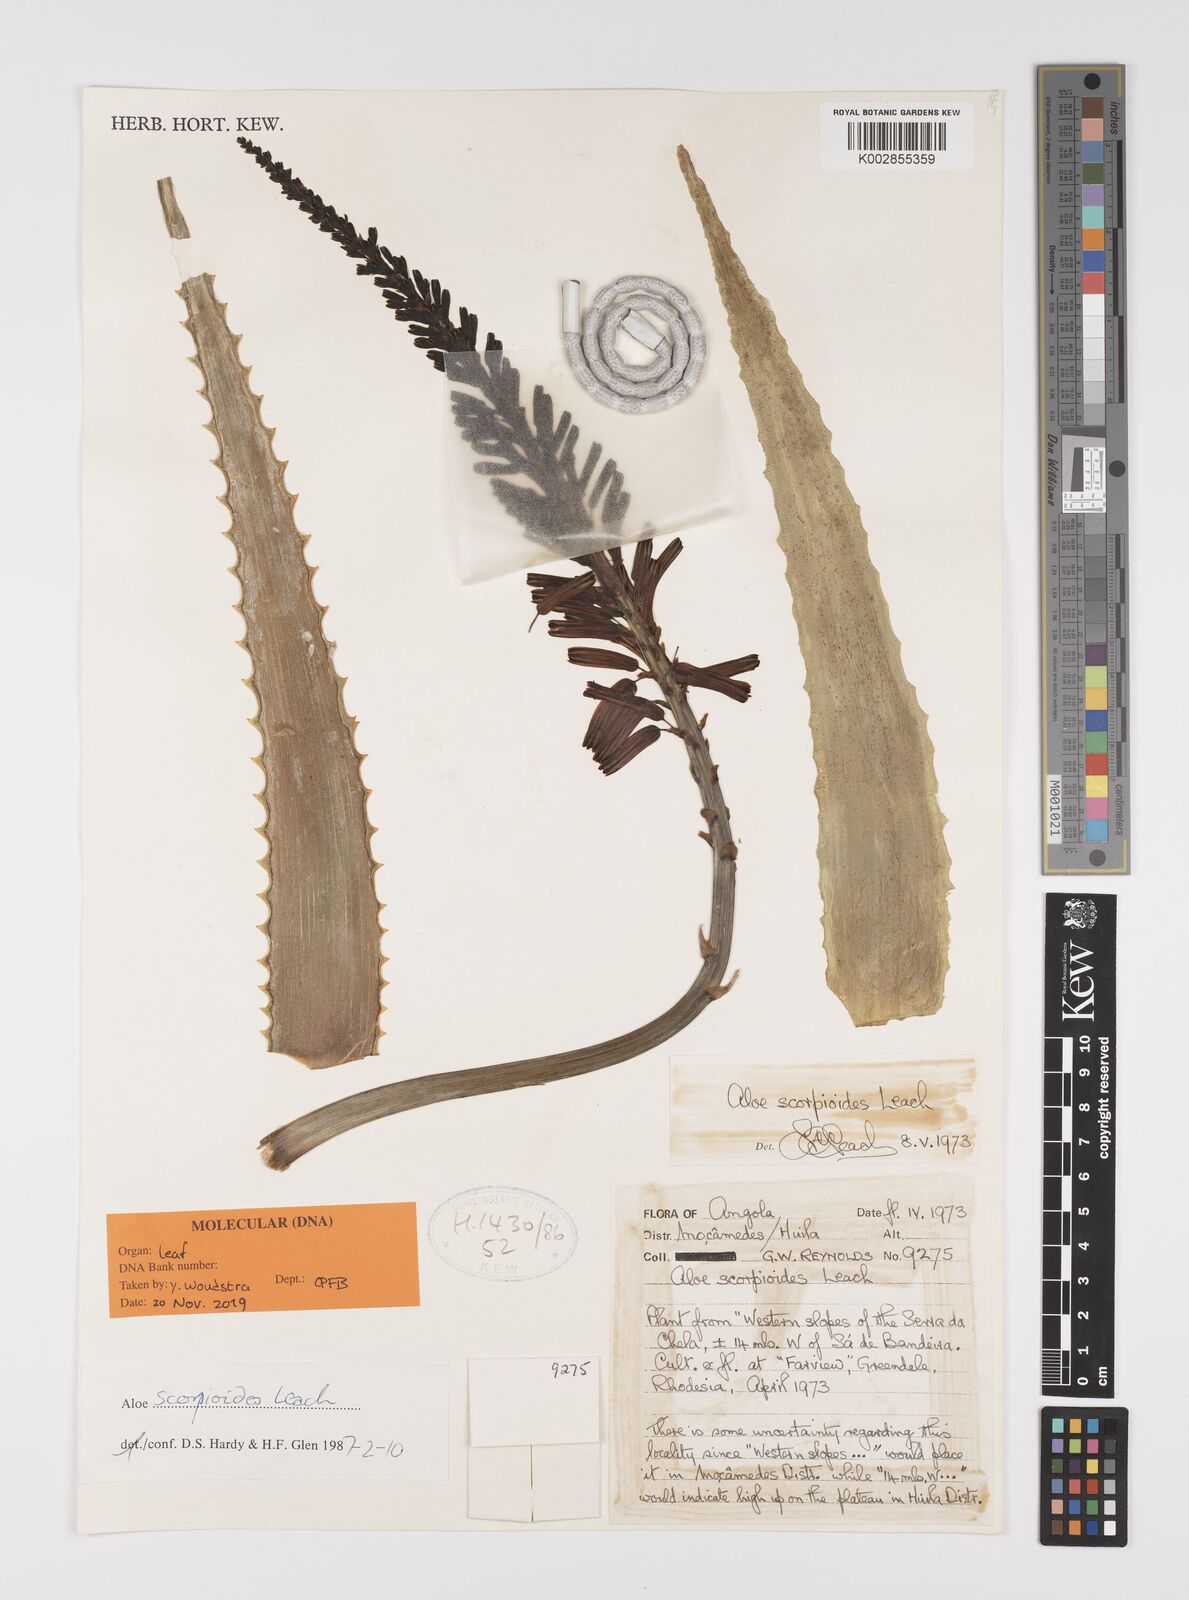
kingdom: Plantae
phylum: Tracheophyta
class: Liliopsida
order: Asparagales
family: Asphodelaceae
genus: Aloe
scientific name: Aloe scorpioides
